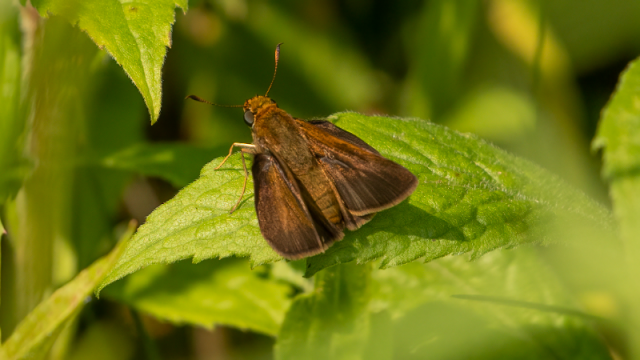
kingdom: Animalia
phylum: Arthropoda
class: Insecta
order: Lepidoptera
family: Hesperiidae
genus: Euphyes
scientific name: Euphyes vestris
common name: Dun Skipper
